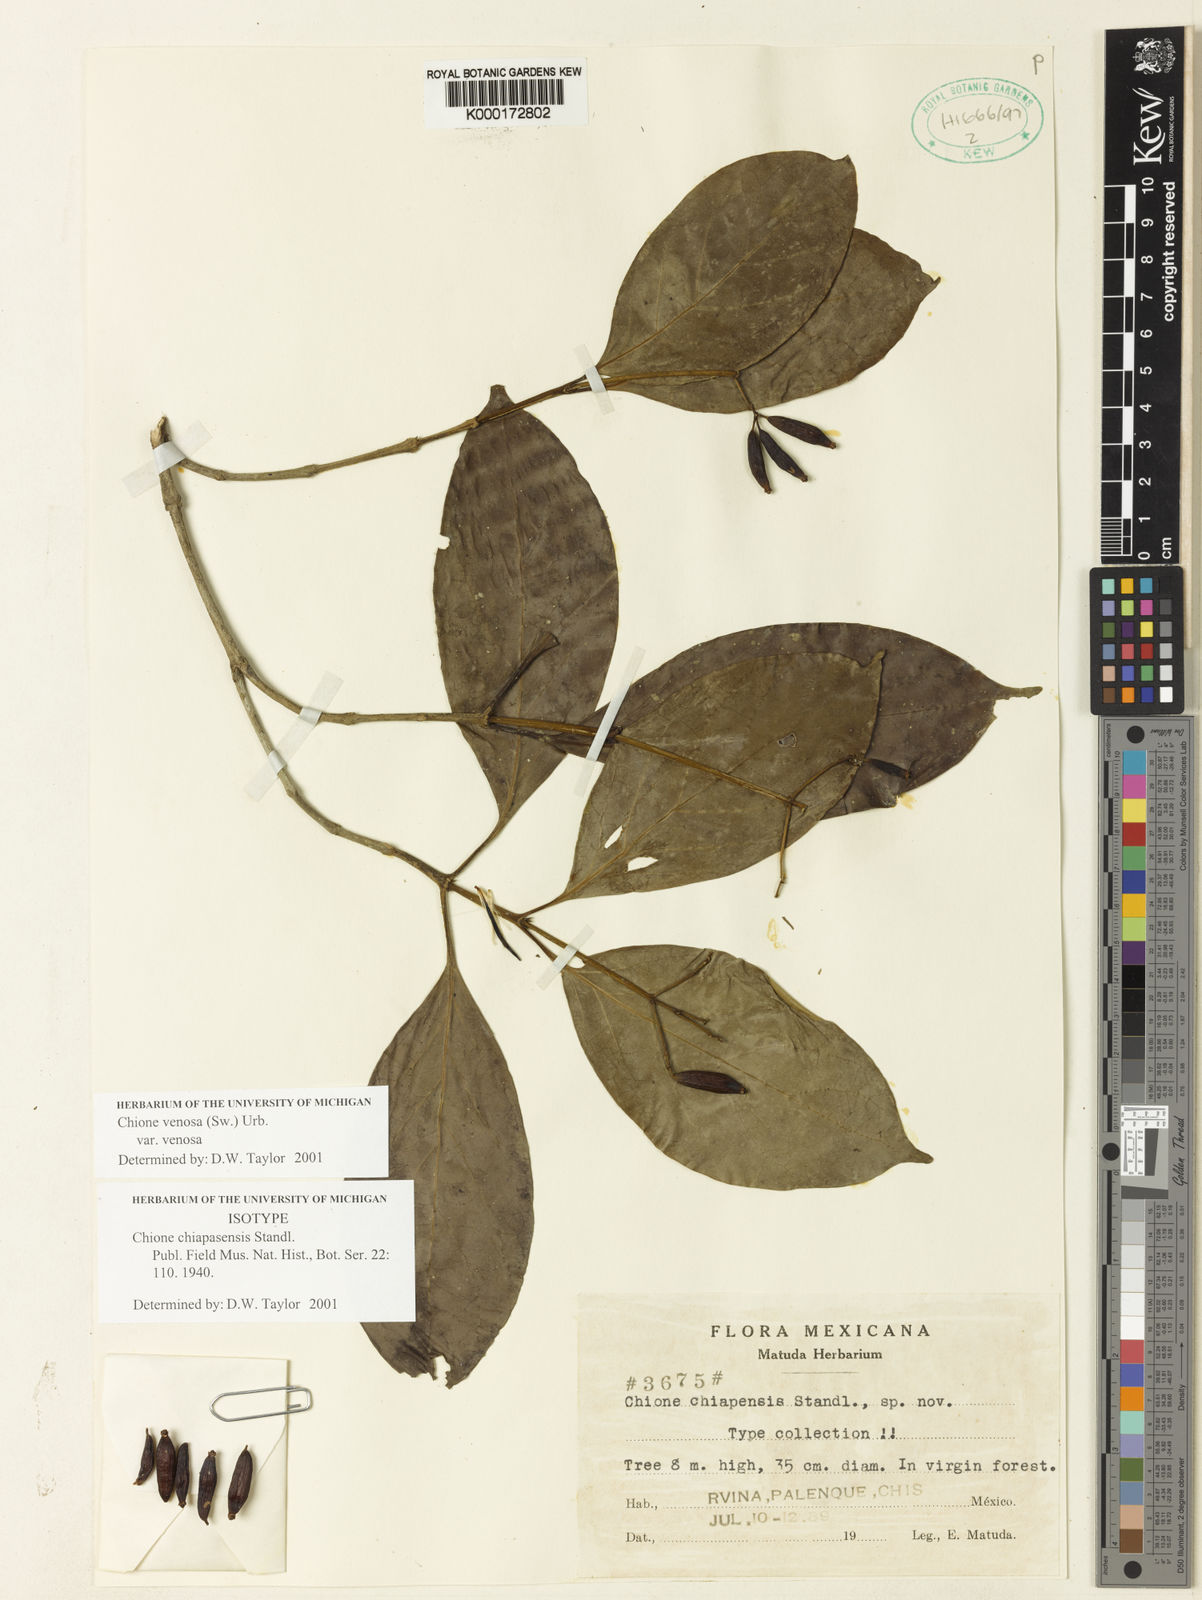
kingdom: Plantae
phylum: Tracheophyta
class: Magnoliopsida
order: Gentianales
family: Rubiaceae
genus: Chione
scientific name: Chione venosa
